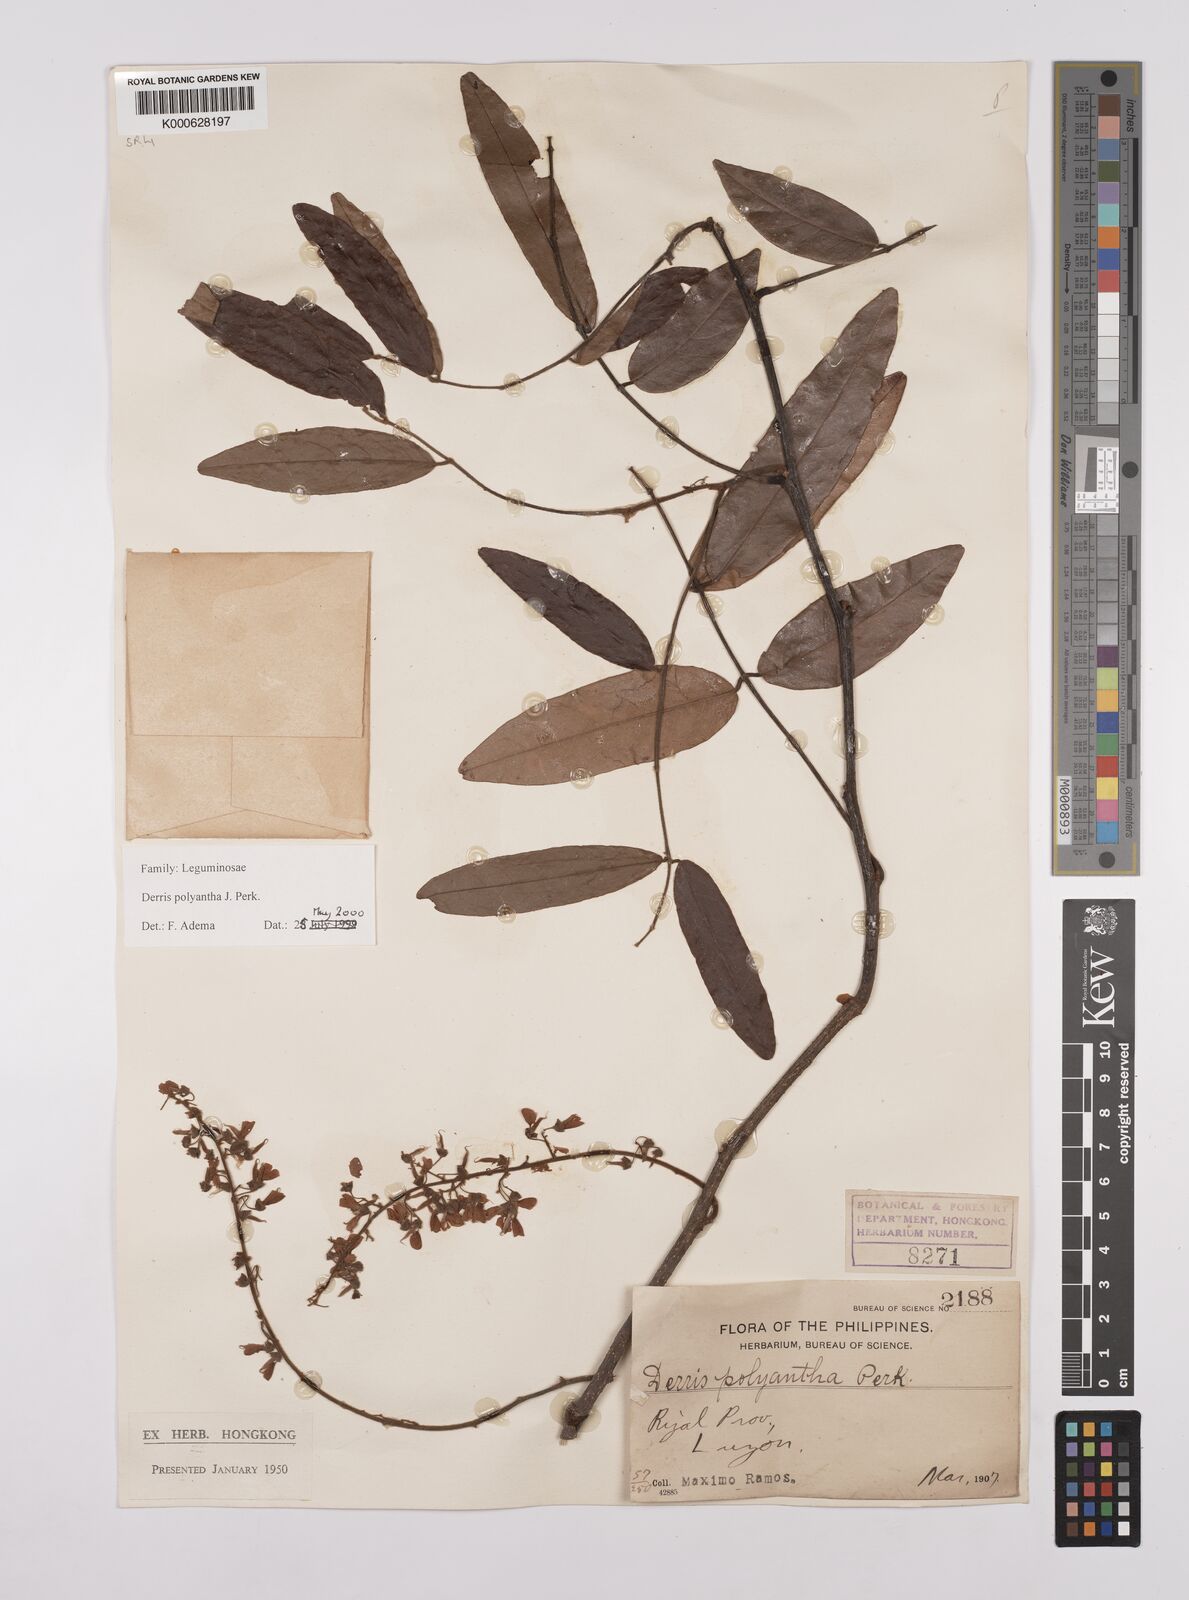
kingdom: Plantae
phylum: Tracheophyta
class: Magnoliopsida
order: Fabales
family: Fabaceae
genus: Derris
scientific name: Derris polyantha
